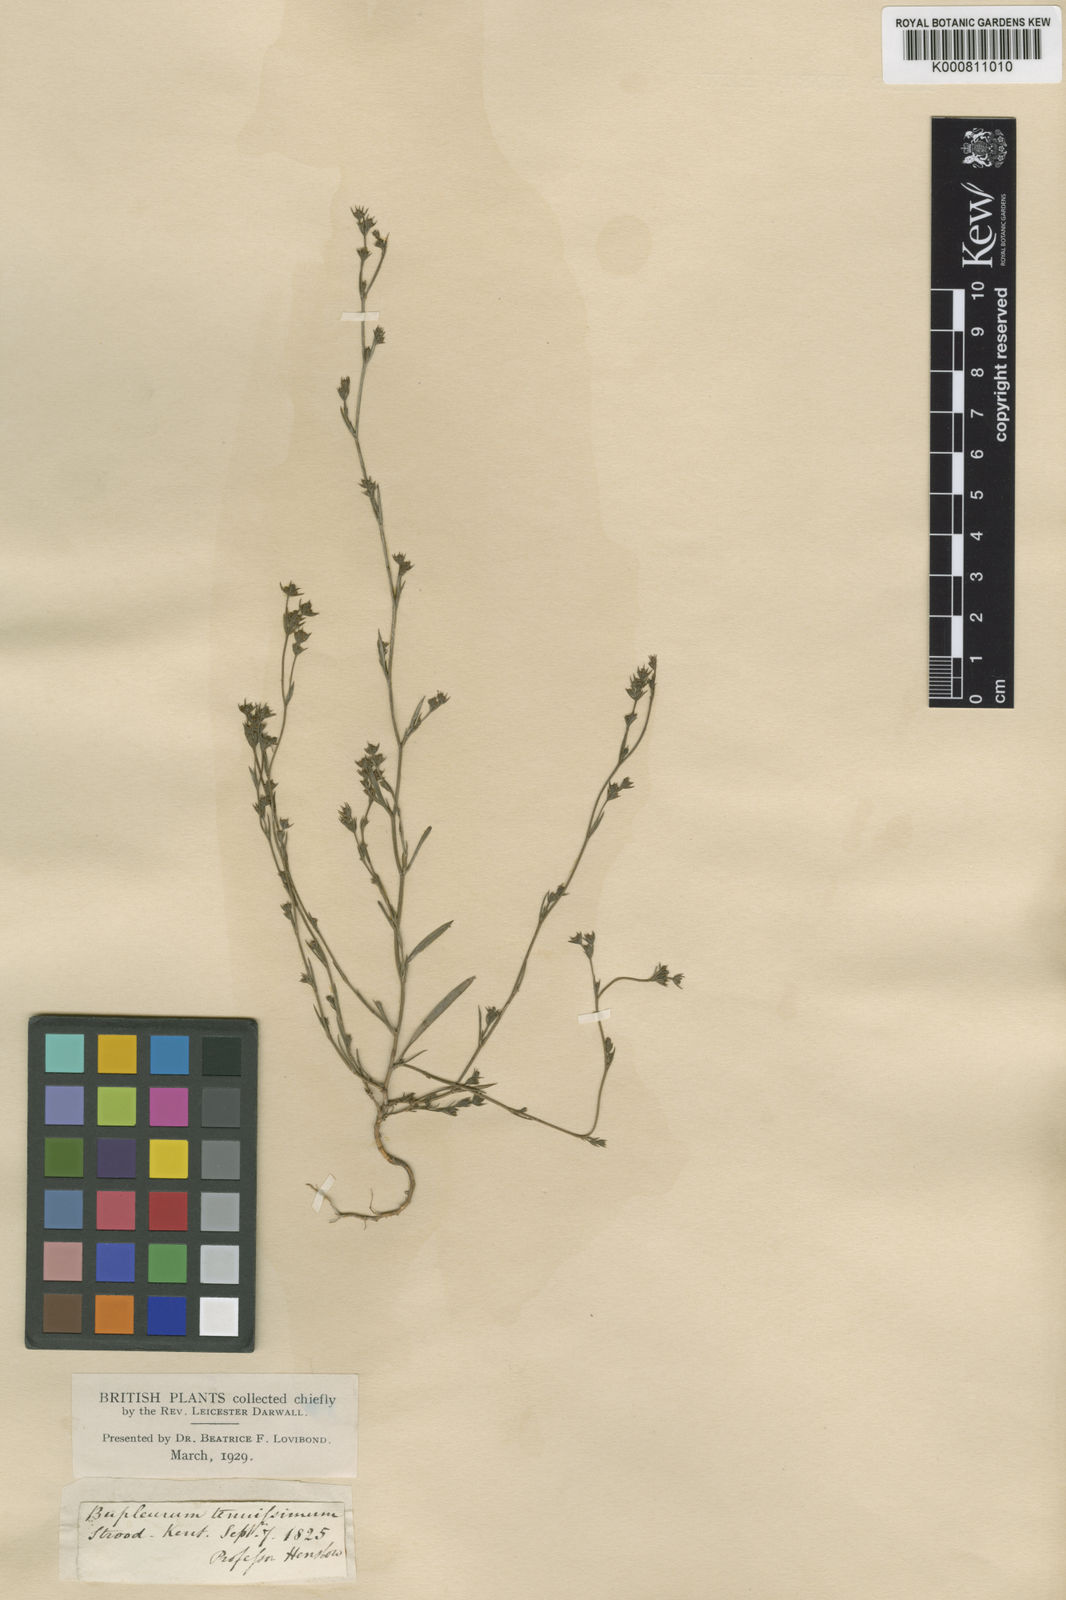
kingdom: Plantae
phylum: Tracheophyta
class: Magnoliopsida
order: Apiales
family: Apiaceae
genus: Bupleurum
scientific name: Bupleurum tenuissimum
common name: Slender hare's-ear
